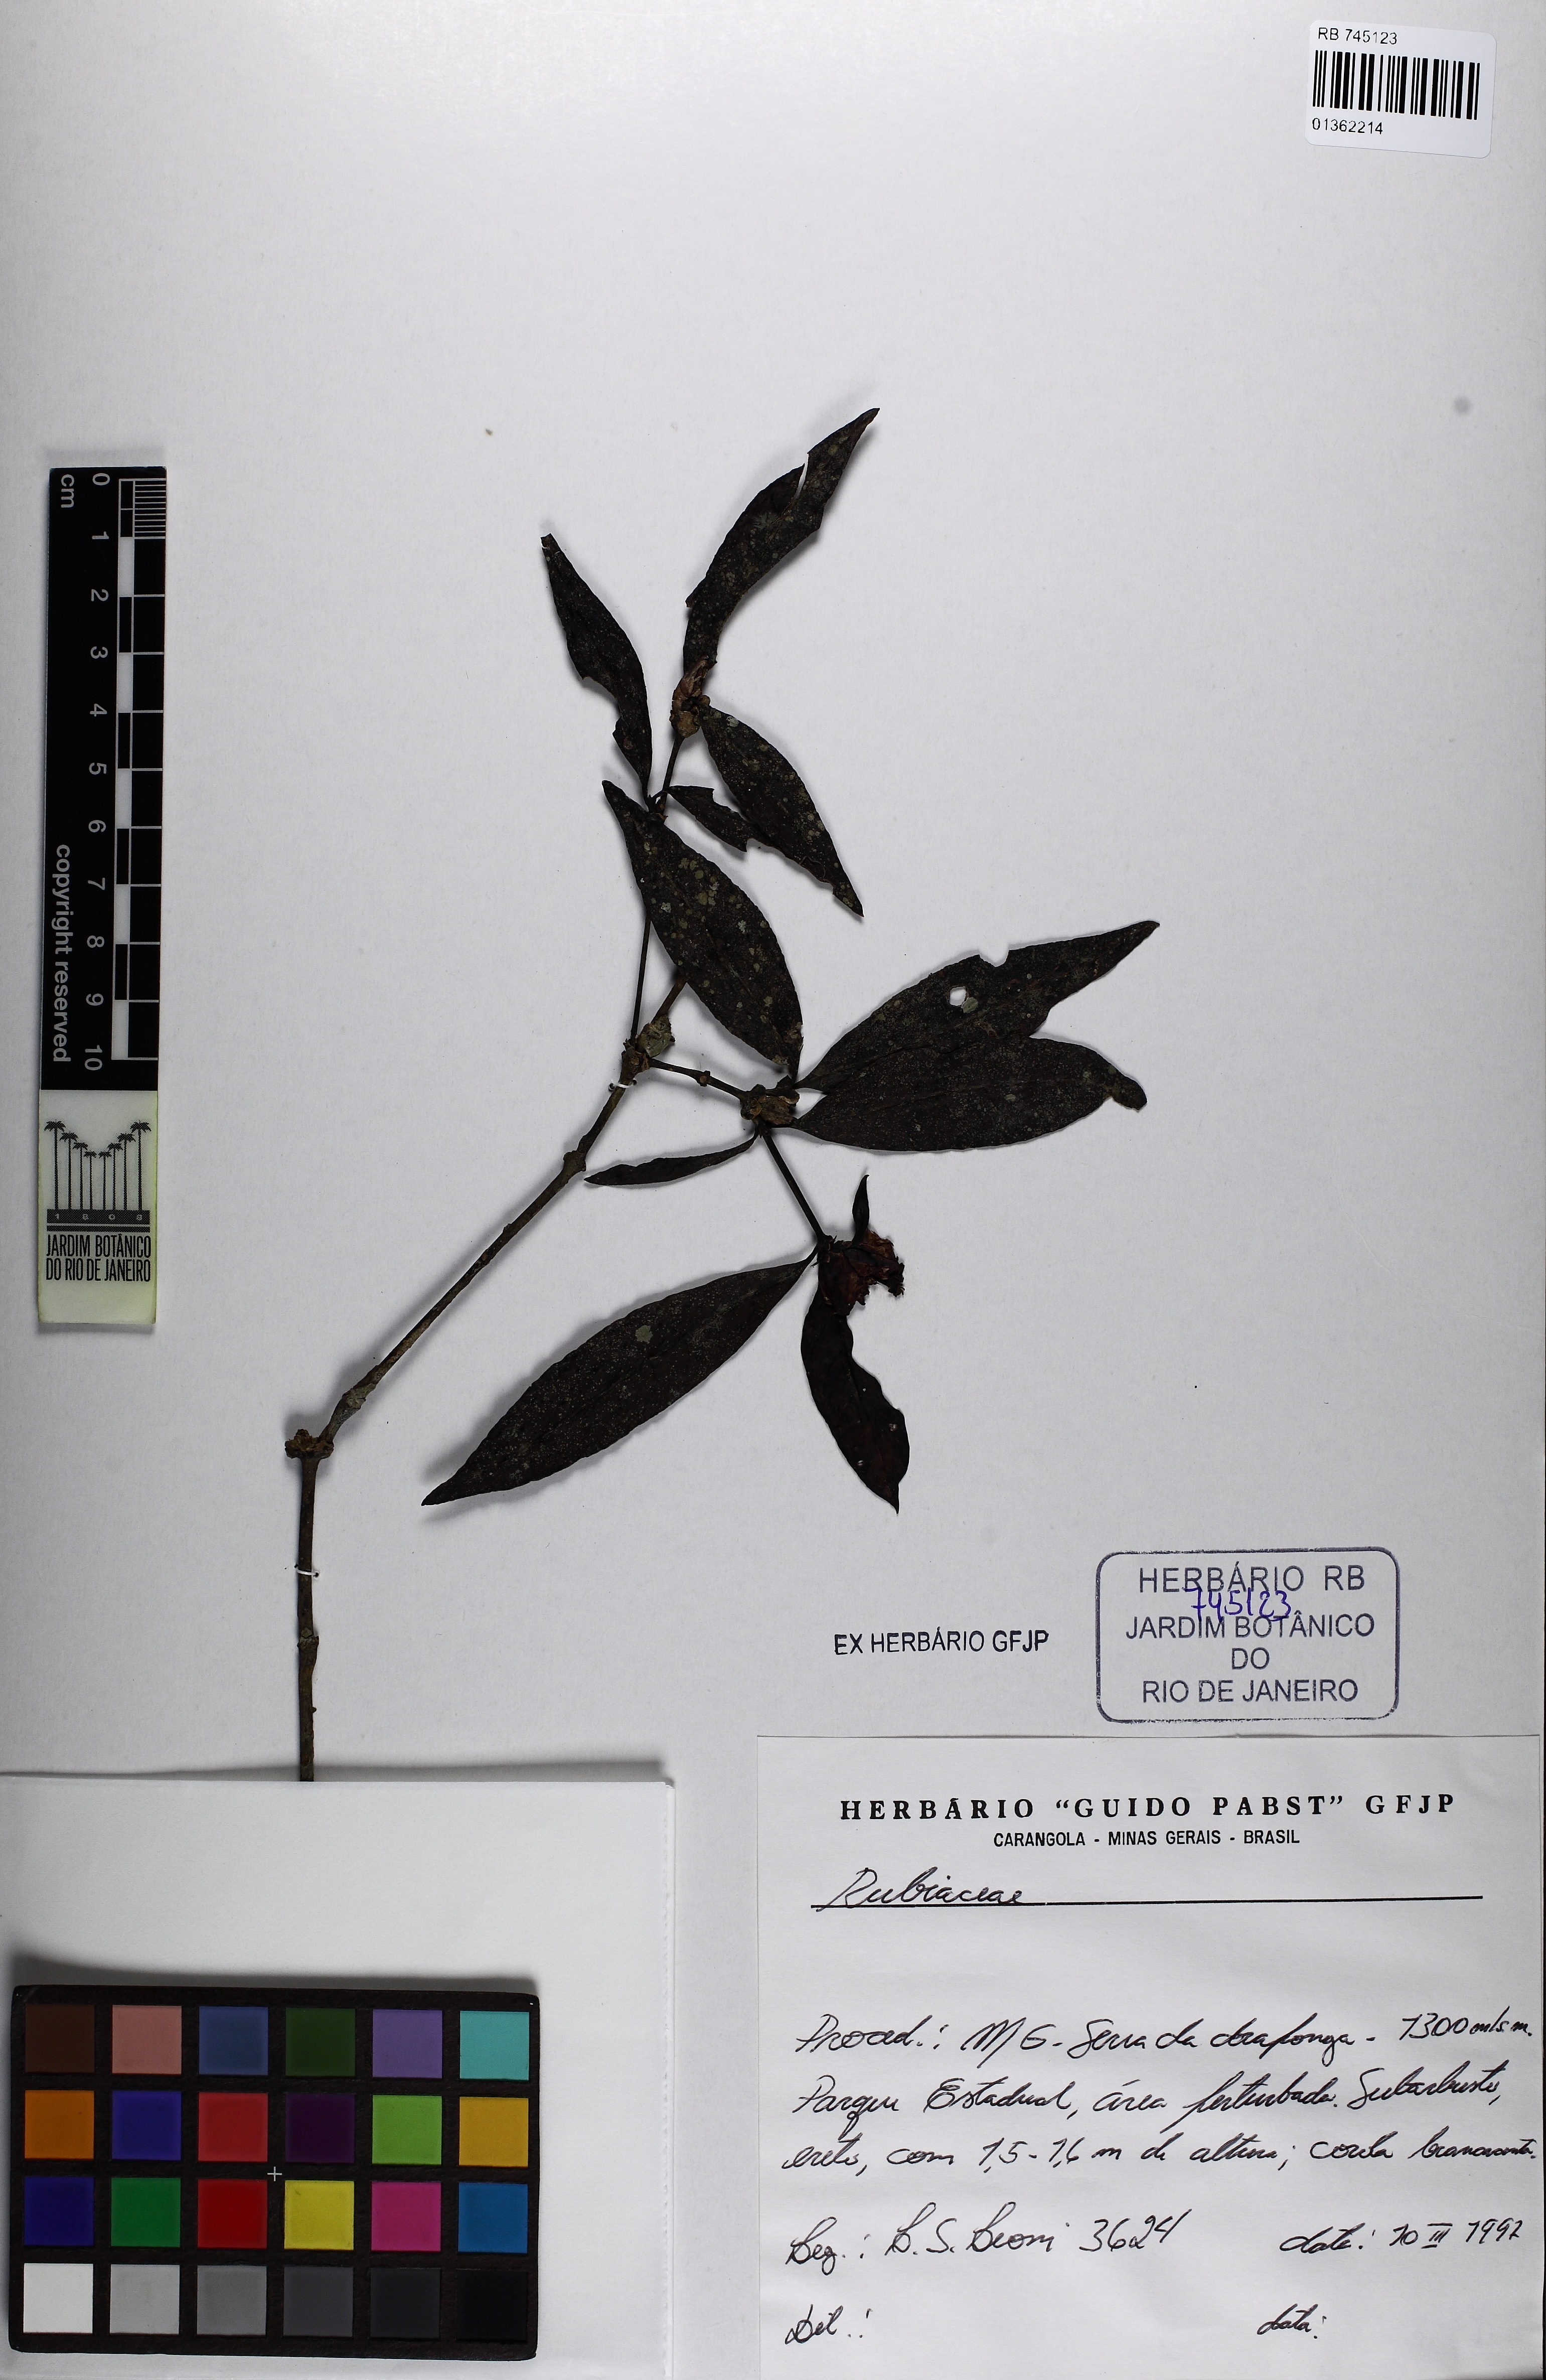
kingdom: Plantae
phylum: Tracheophyta
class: Magnoliopsida
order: Gentianales
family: Rubiaceae
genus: Psychotria
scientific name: Psychotria appendiculata
